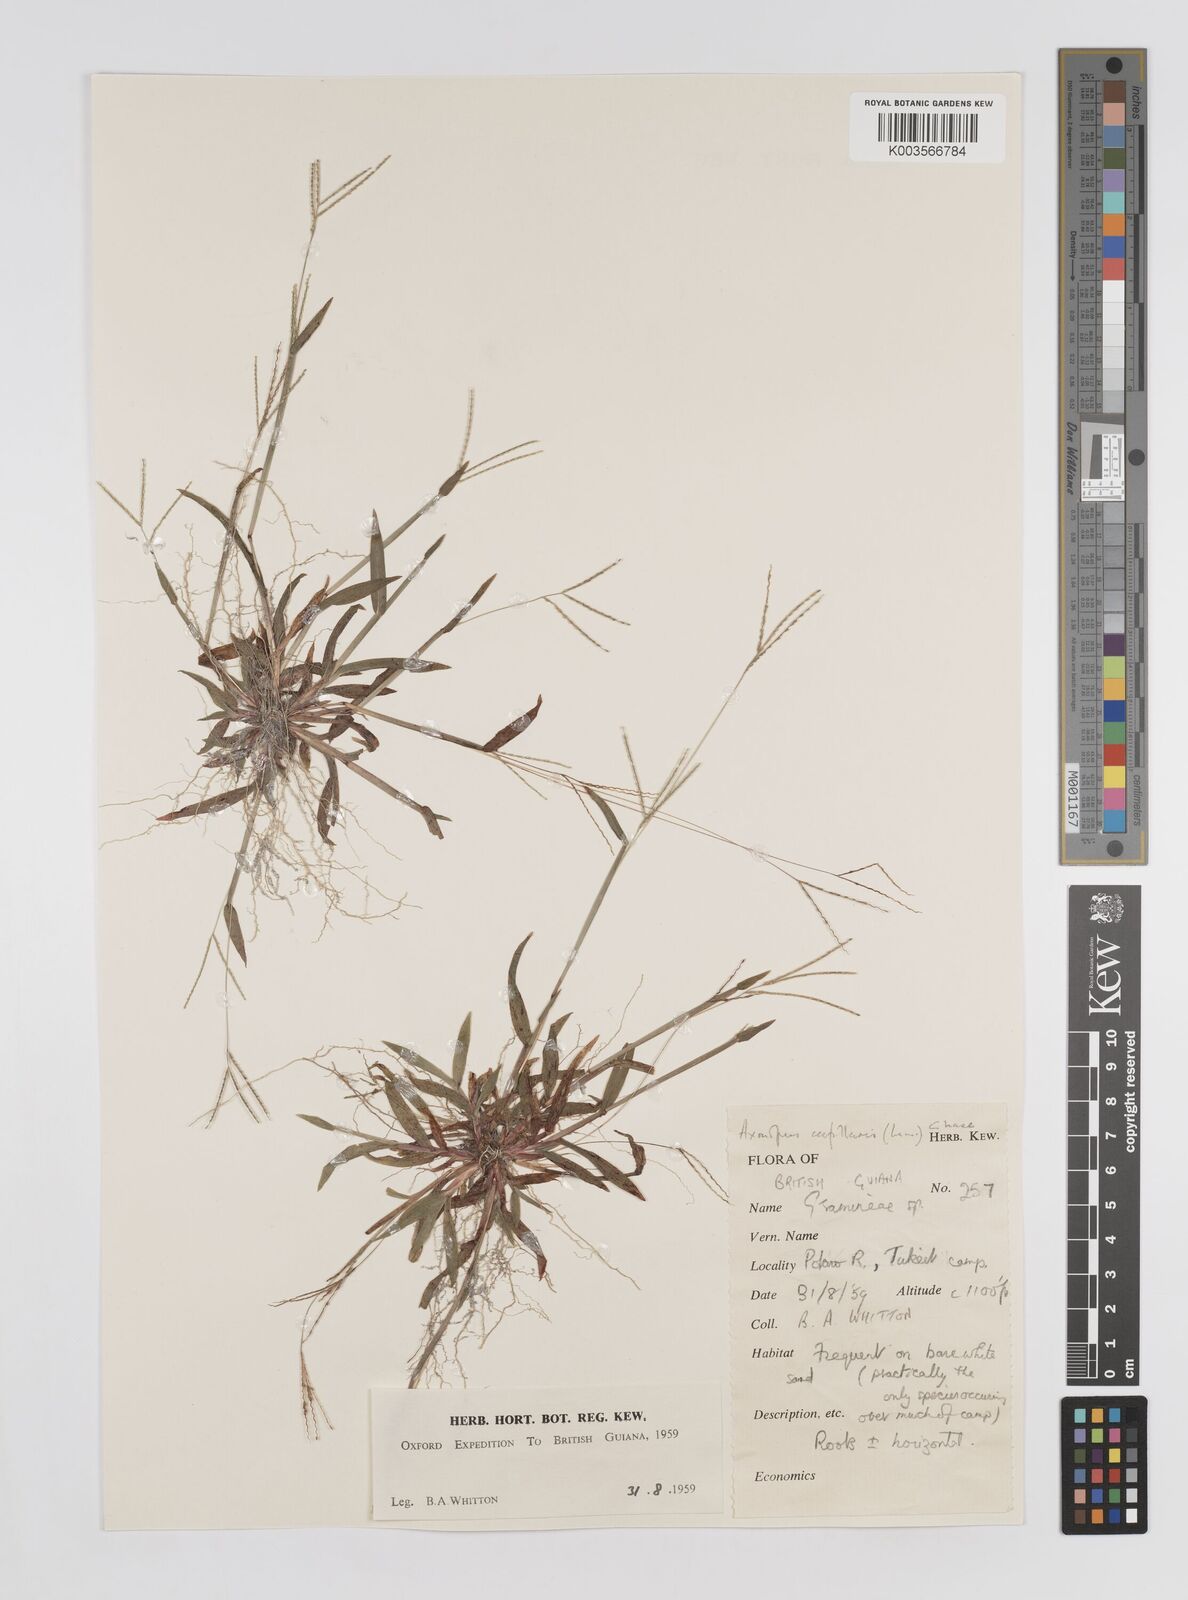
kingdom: Plantae
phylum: Tracheophyta
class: Liliopsida
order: Poales
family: Poaceae
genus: Axonopus
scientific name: Axonopus capillaris
